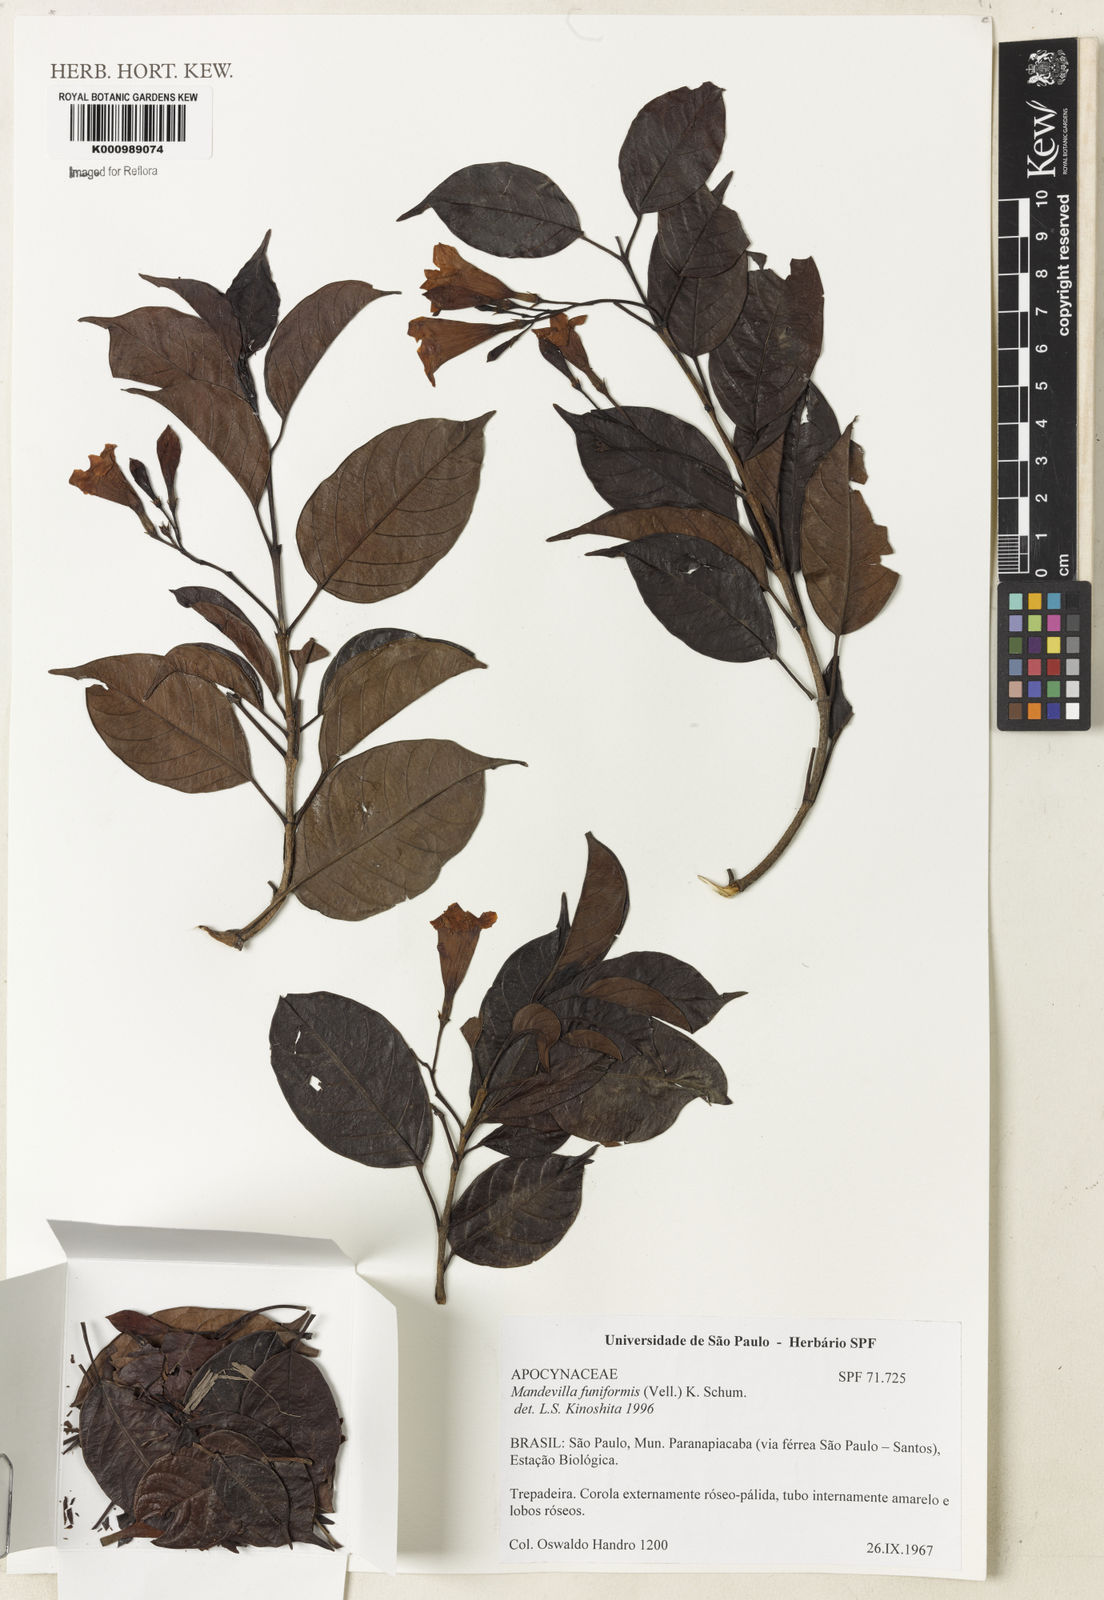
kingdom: Plantae
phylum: Tracheophyta
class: Magnoliopsida
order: Gentianales
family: Apocynaceae
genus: Mandevilla
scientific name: Mandevilla funiformis
